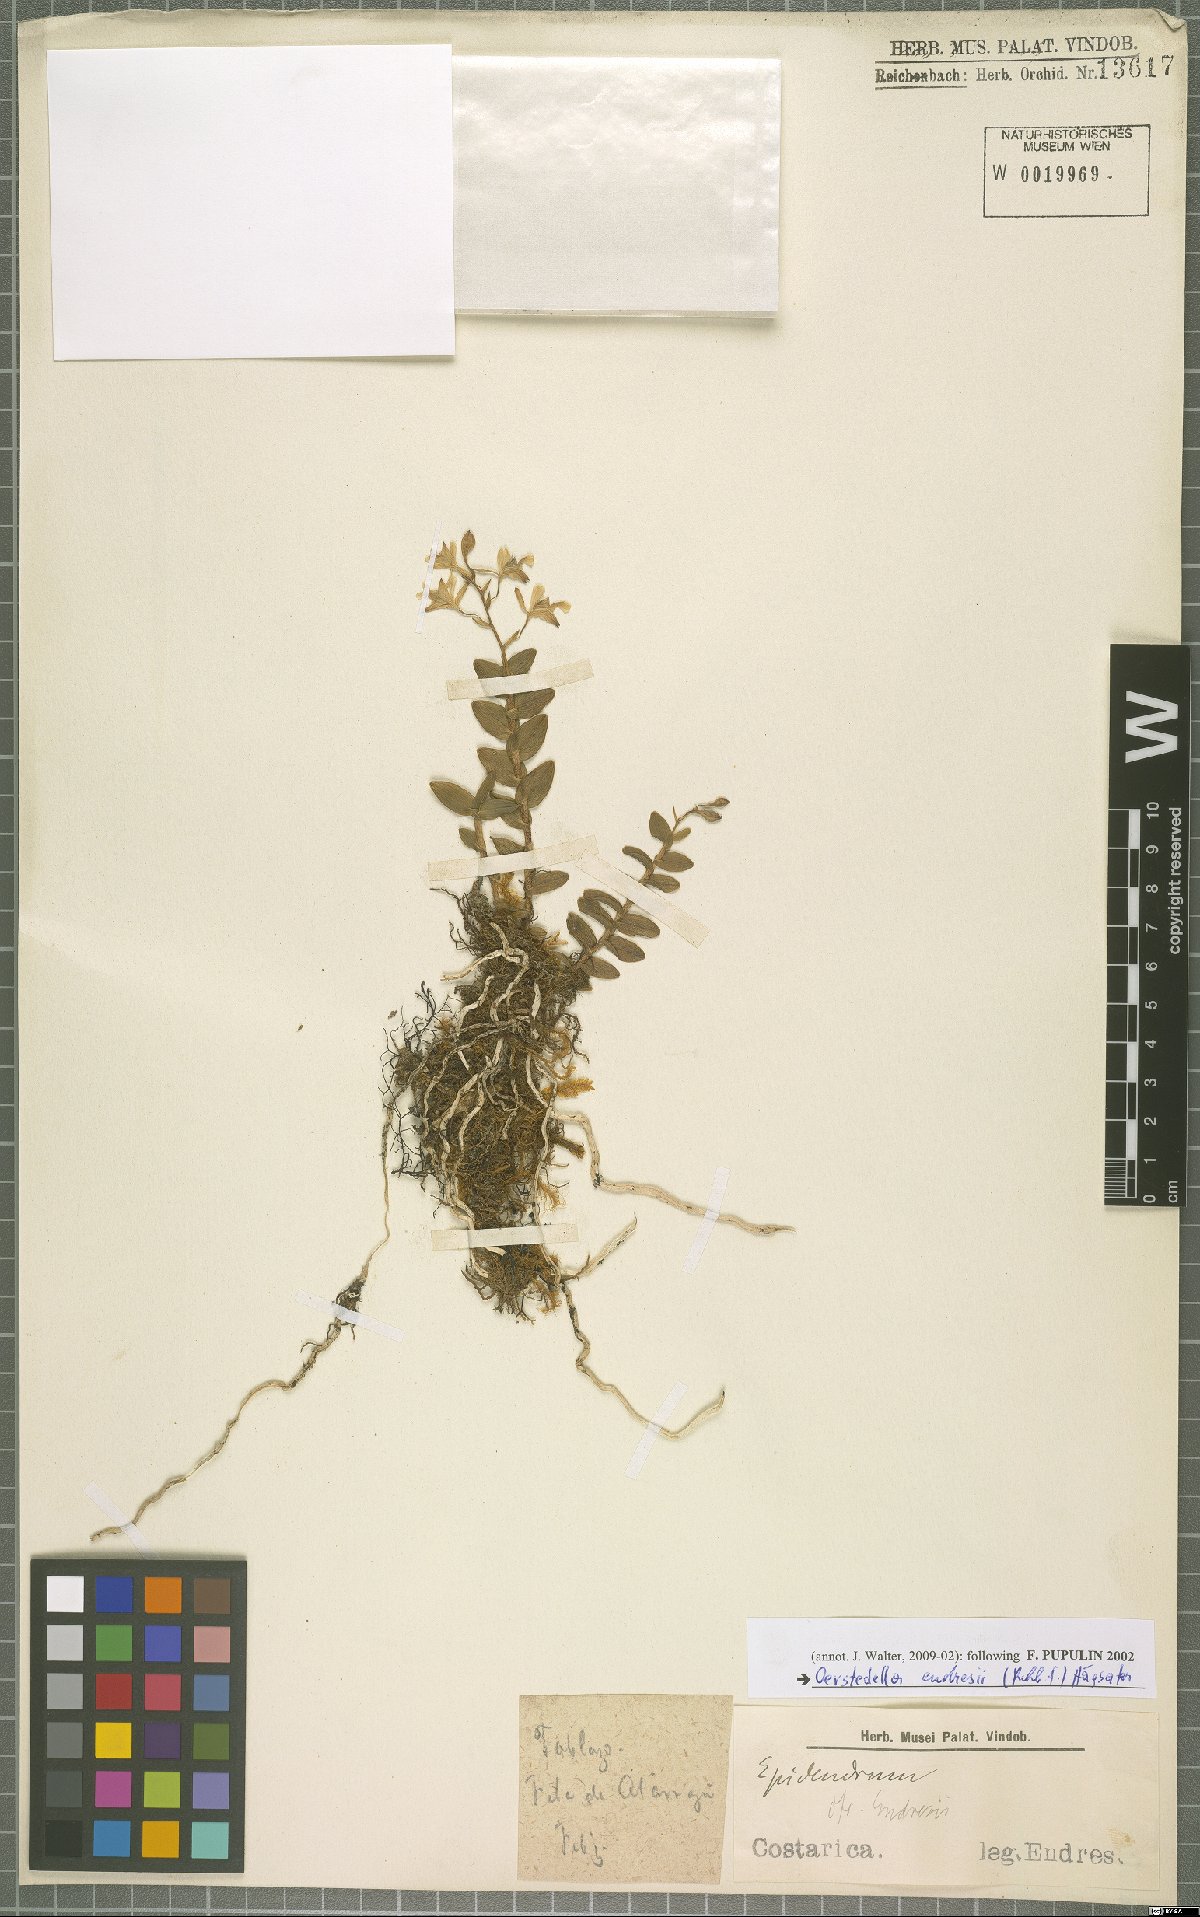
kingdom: Plantae
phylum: Tracheophyta
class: Liliopsida
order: Asparagales
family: Orchidaceae
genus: Epidendrum
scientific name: Epidendrum endresii
